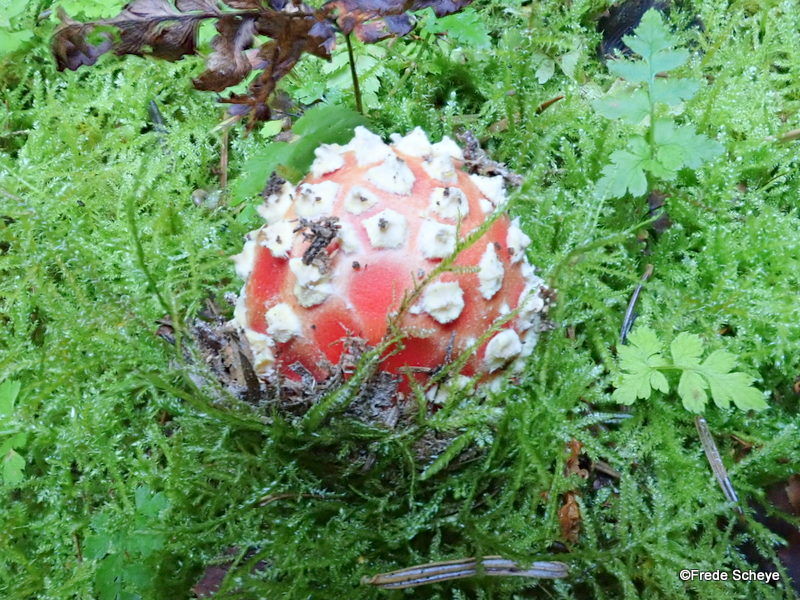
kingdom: Fungi
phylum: Basidiomycota
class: Agaricomycetes
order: Agaricales
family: Amanitaceae
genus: Amanita
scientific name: Amanita muscaria
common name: rød fluesvamp
